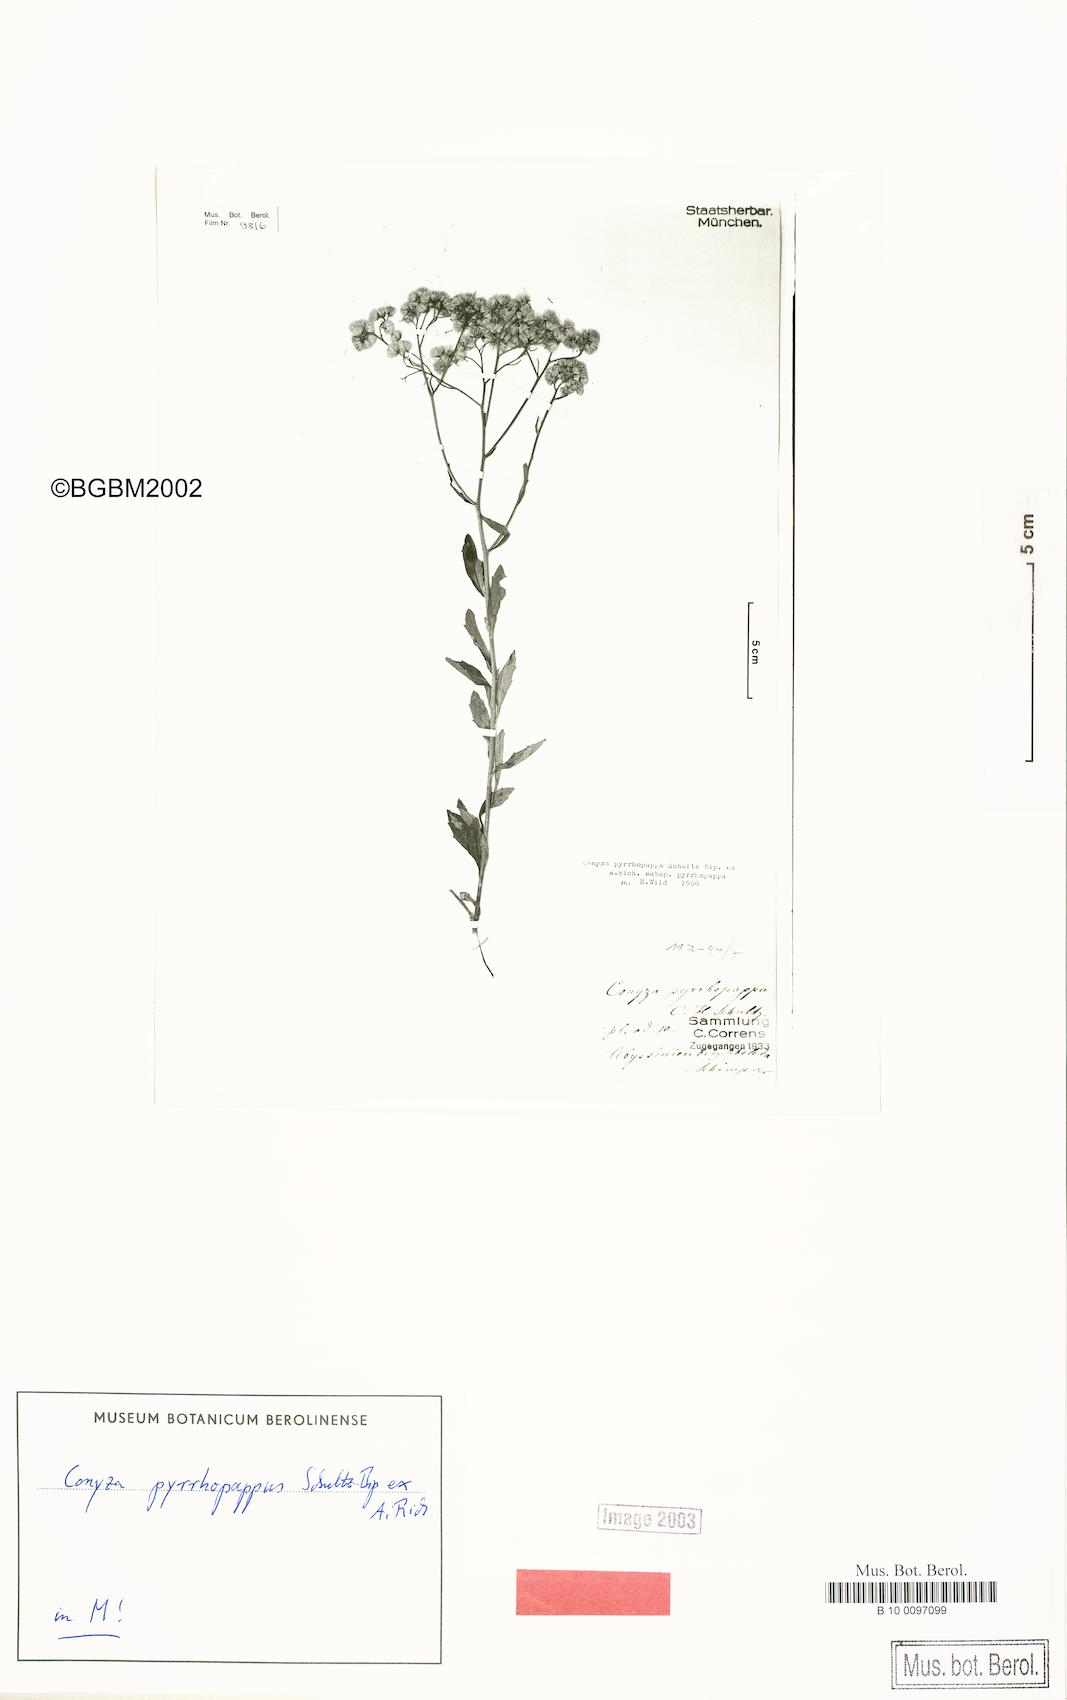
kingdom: Plantae
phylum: Tracheophyta
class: Magnoliopsida
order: Asterales
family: Asteraceae
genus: Microglossa
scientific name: Microglossa pyrrhopappa
